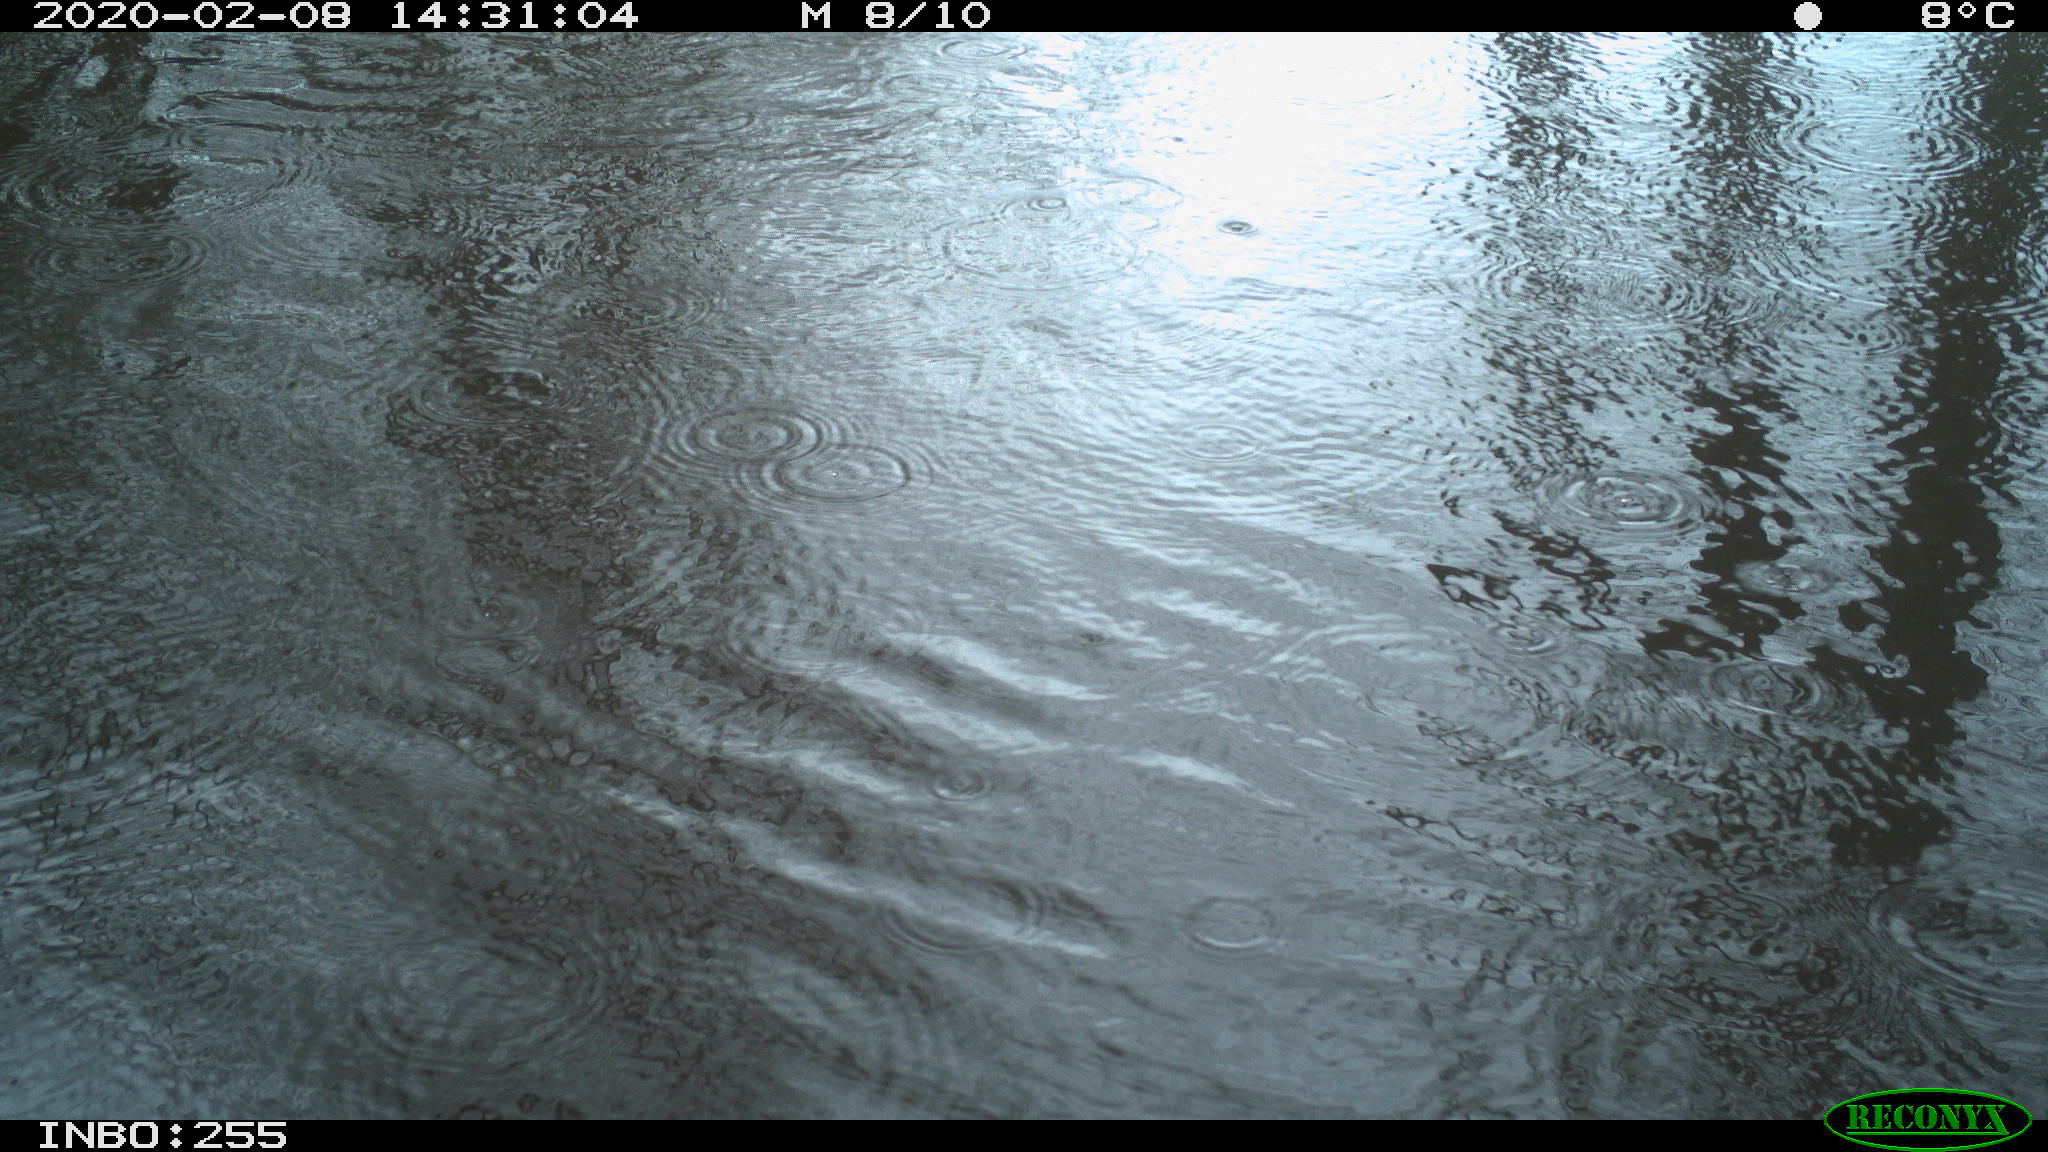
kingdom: Animalia
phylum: Chordata
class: Aves
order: Gruiformes
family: Rallidae
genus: Fulica
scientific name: Fulica atra
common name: Eurasian coot
